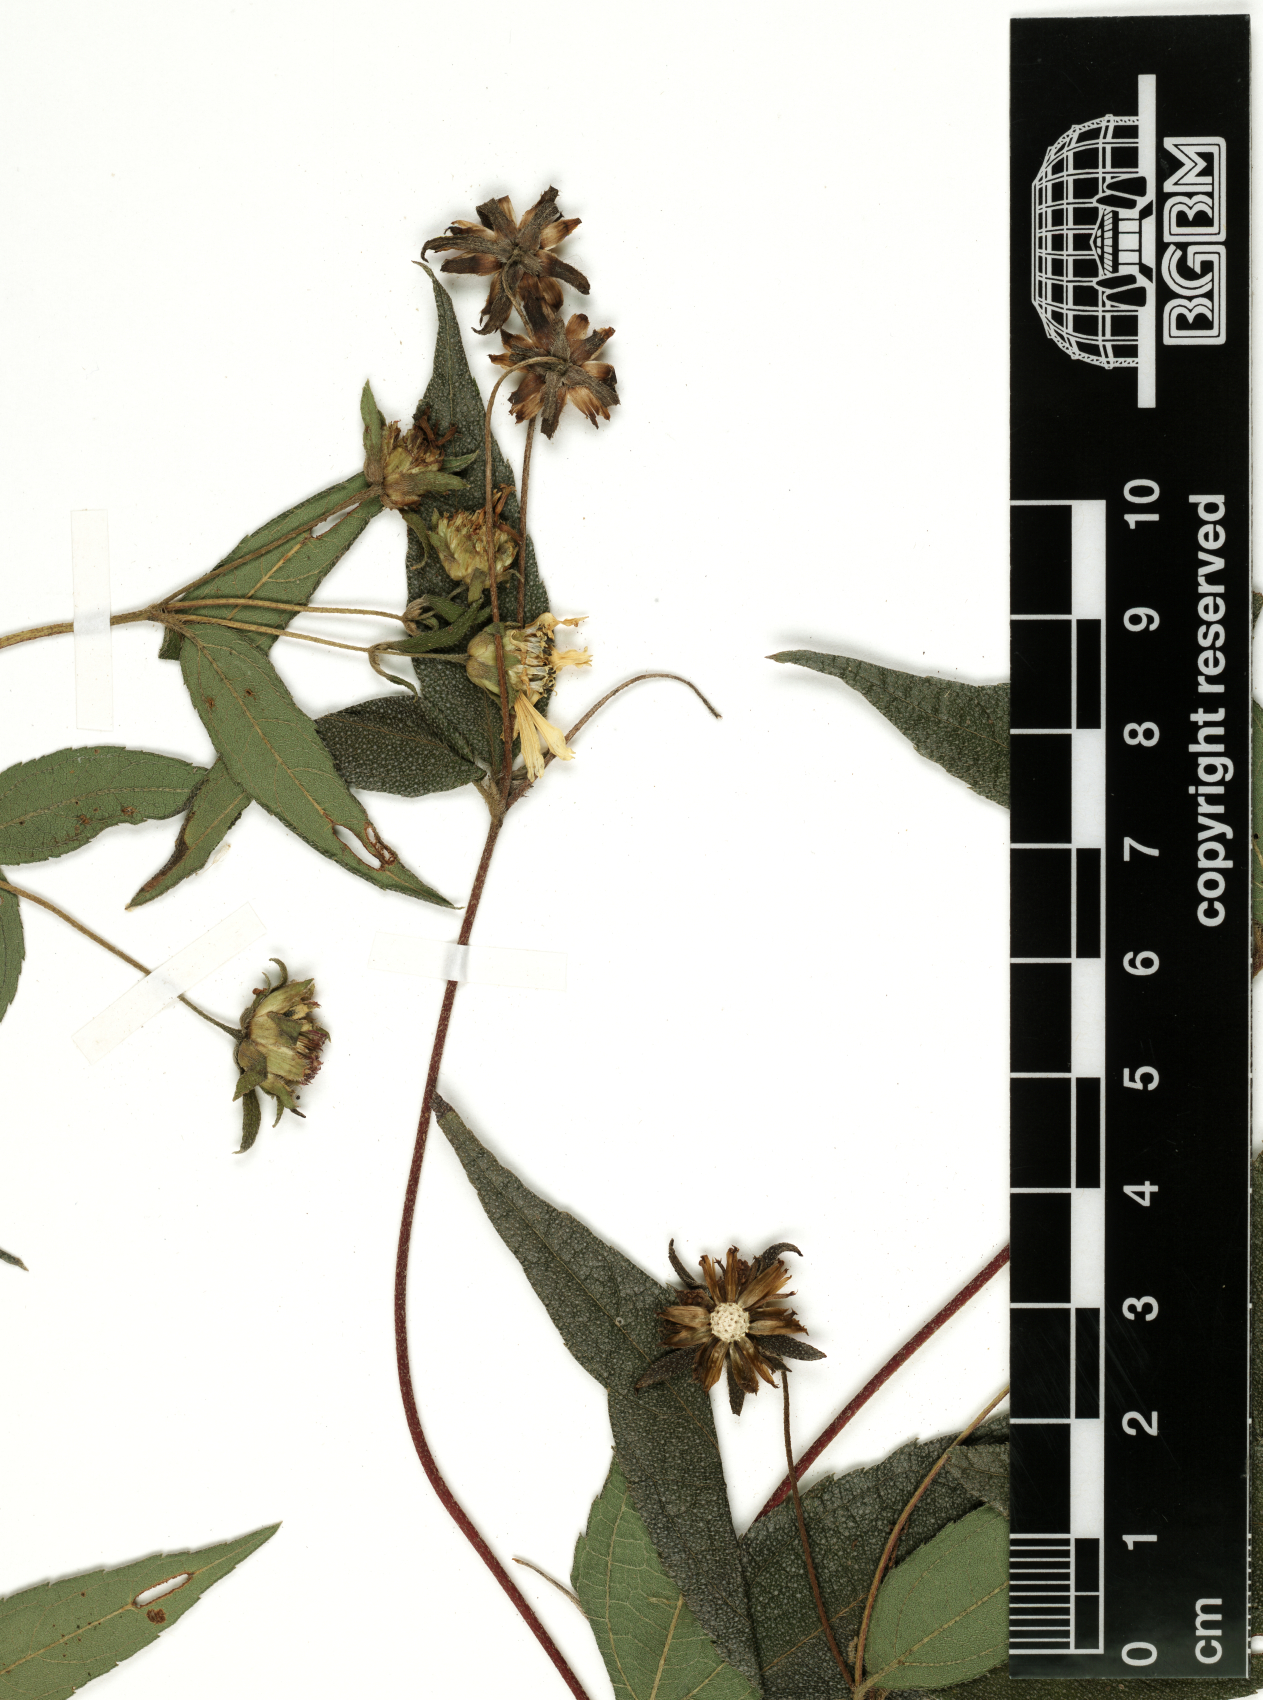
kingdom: Plantae
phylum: Tracheophyta
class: Magnoliopsida
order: Asterales
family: Asteraceae
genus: Aspilia
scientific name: Aspilia helianthoides
